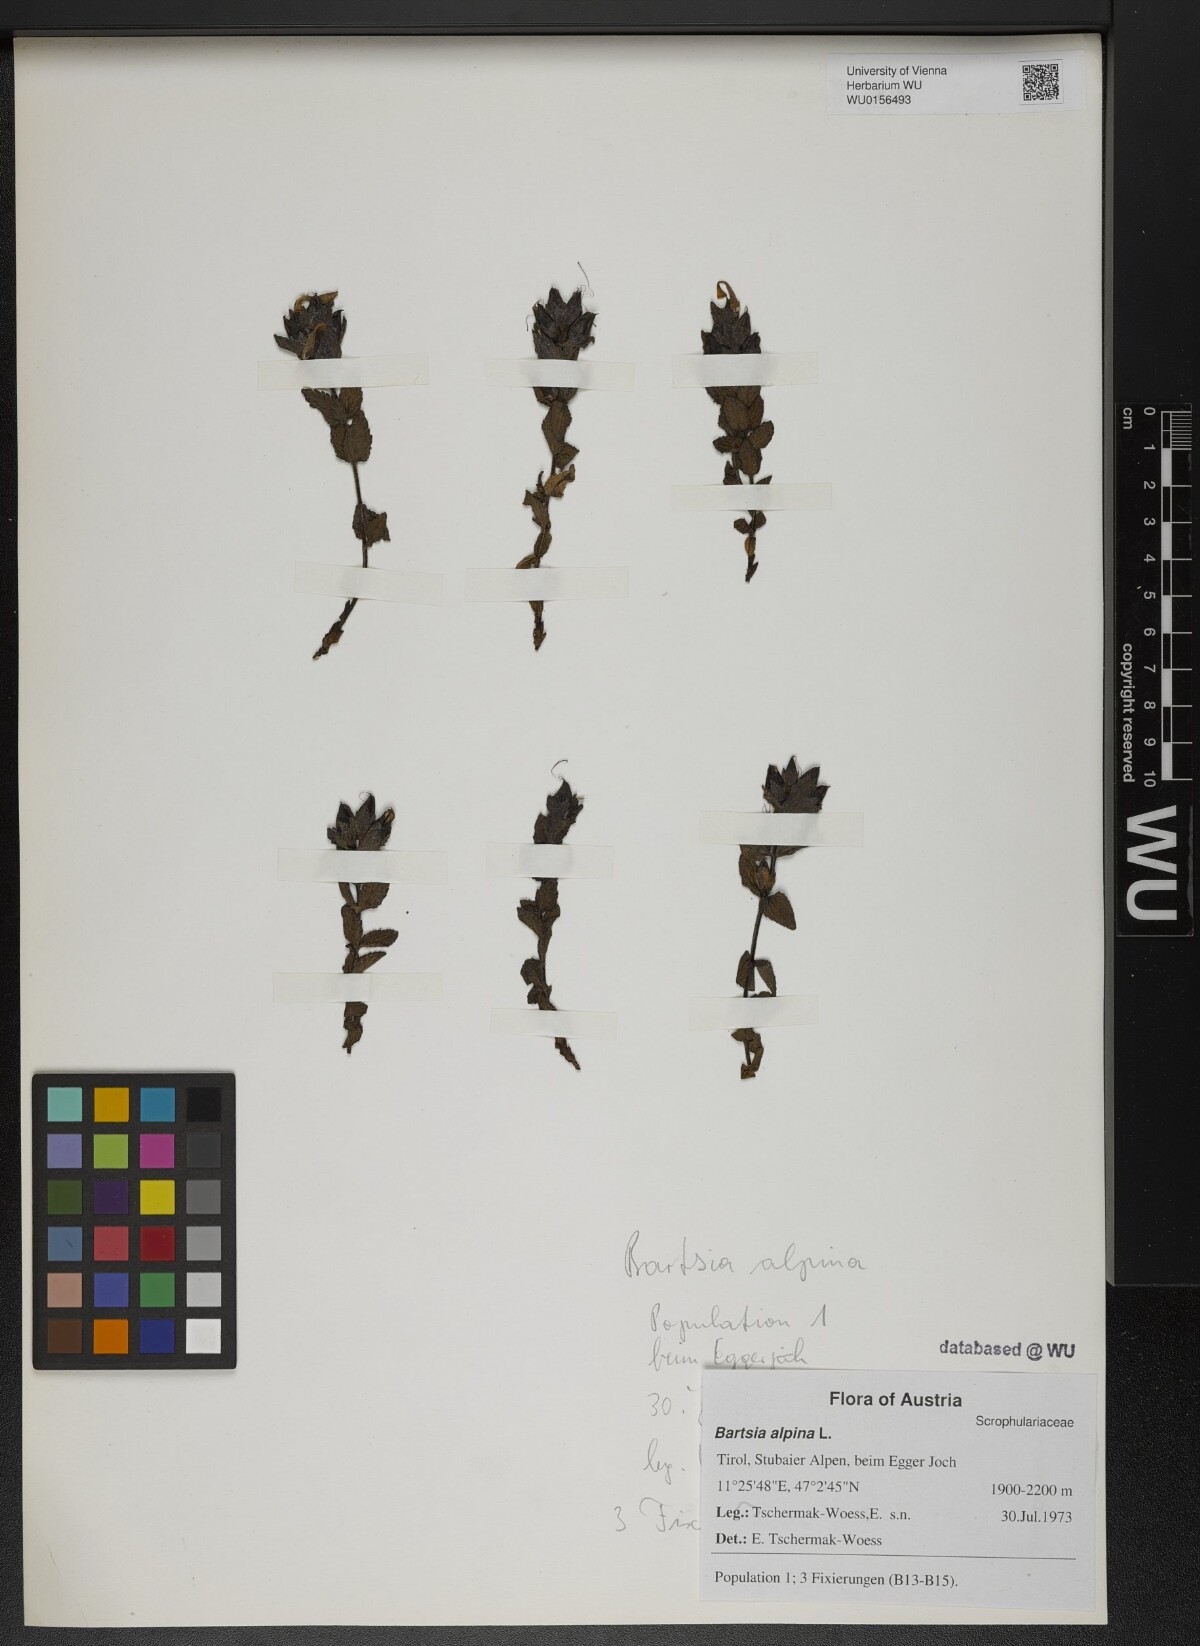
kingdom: Plantae
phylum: Tracheophyta
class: Magnoliopsida
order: Lamiales
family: Orobanchaceae
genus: Bartsia
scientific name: Bartsia alpina
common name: Alpine bartsia
